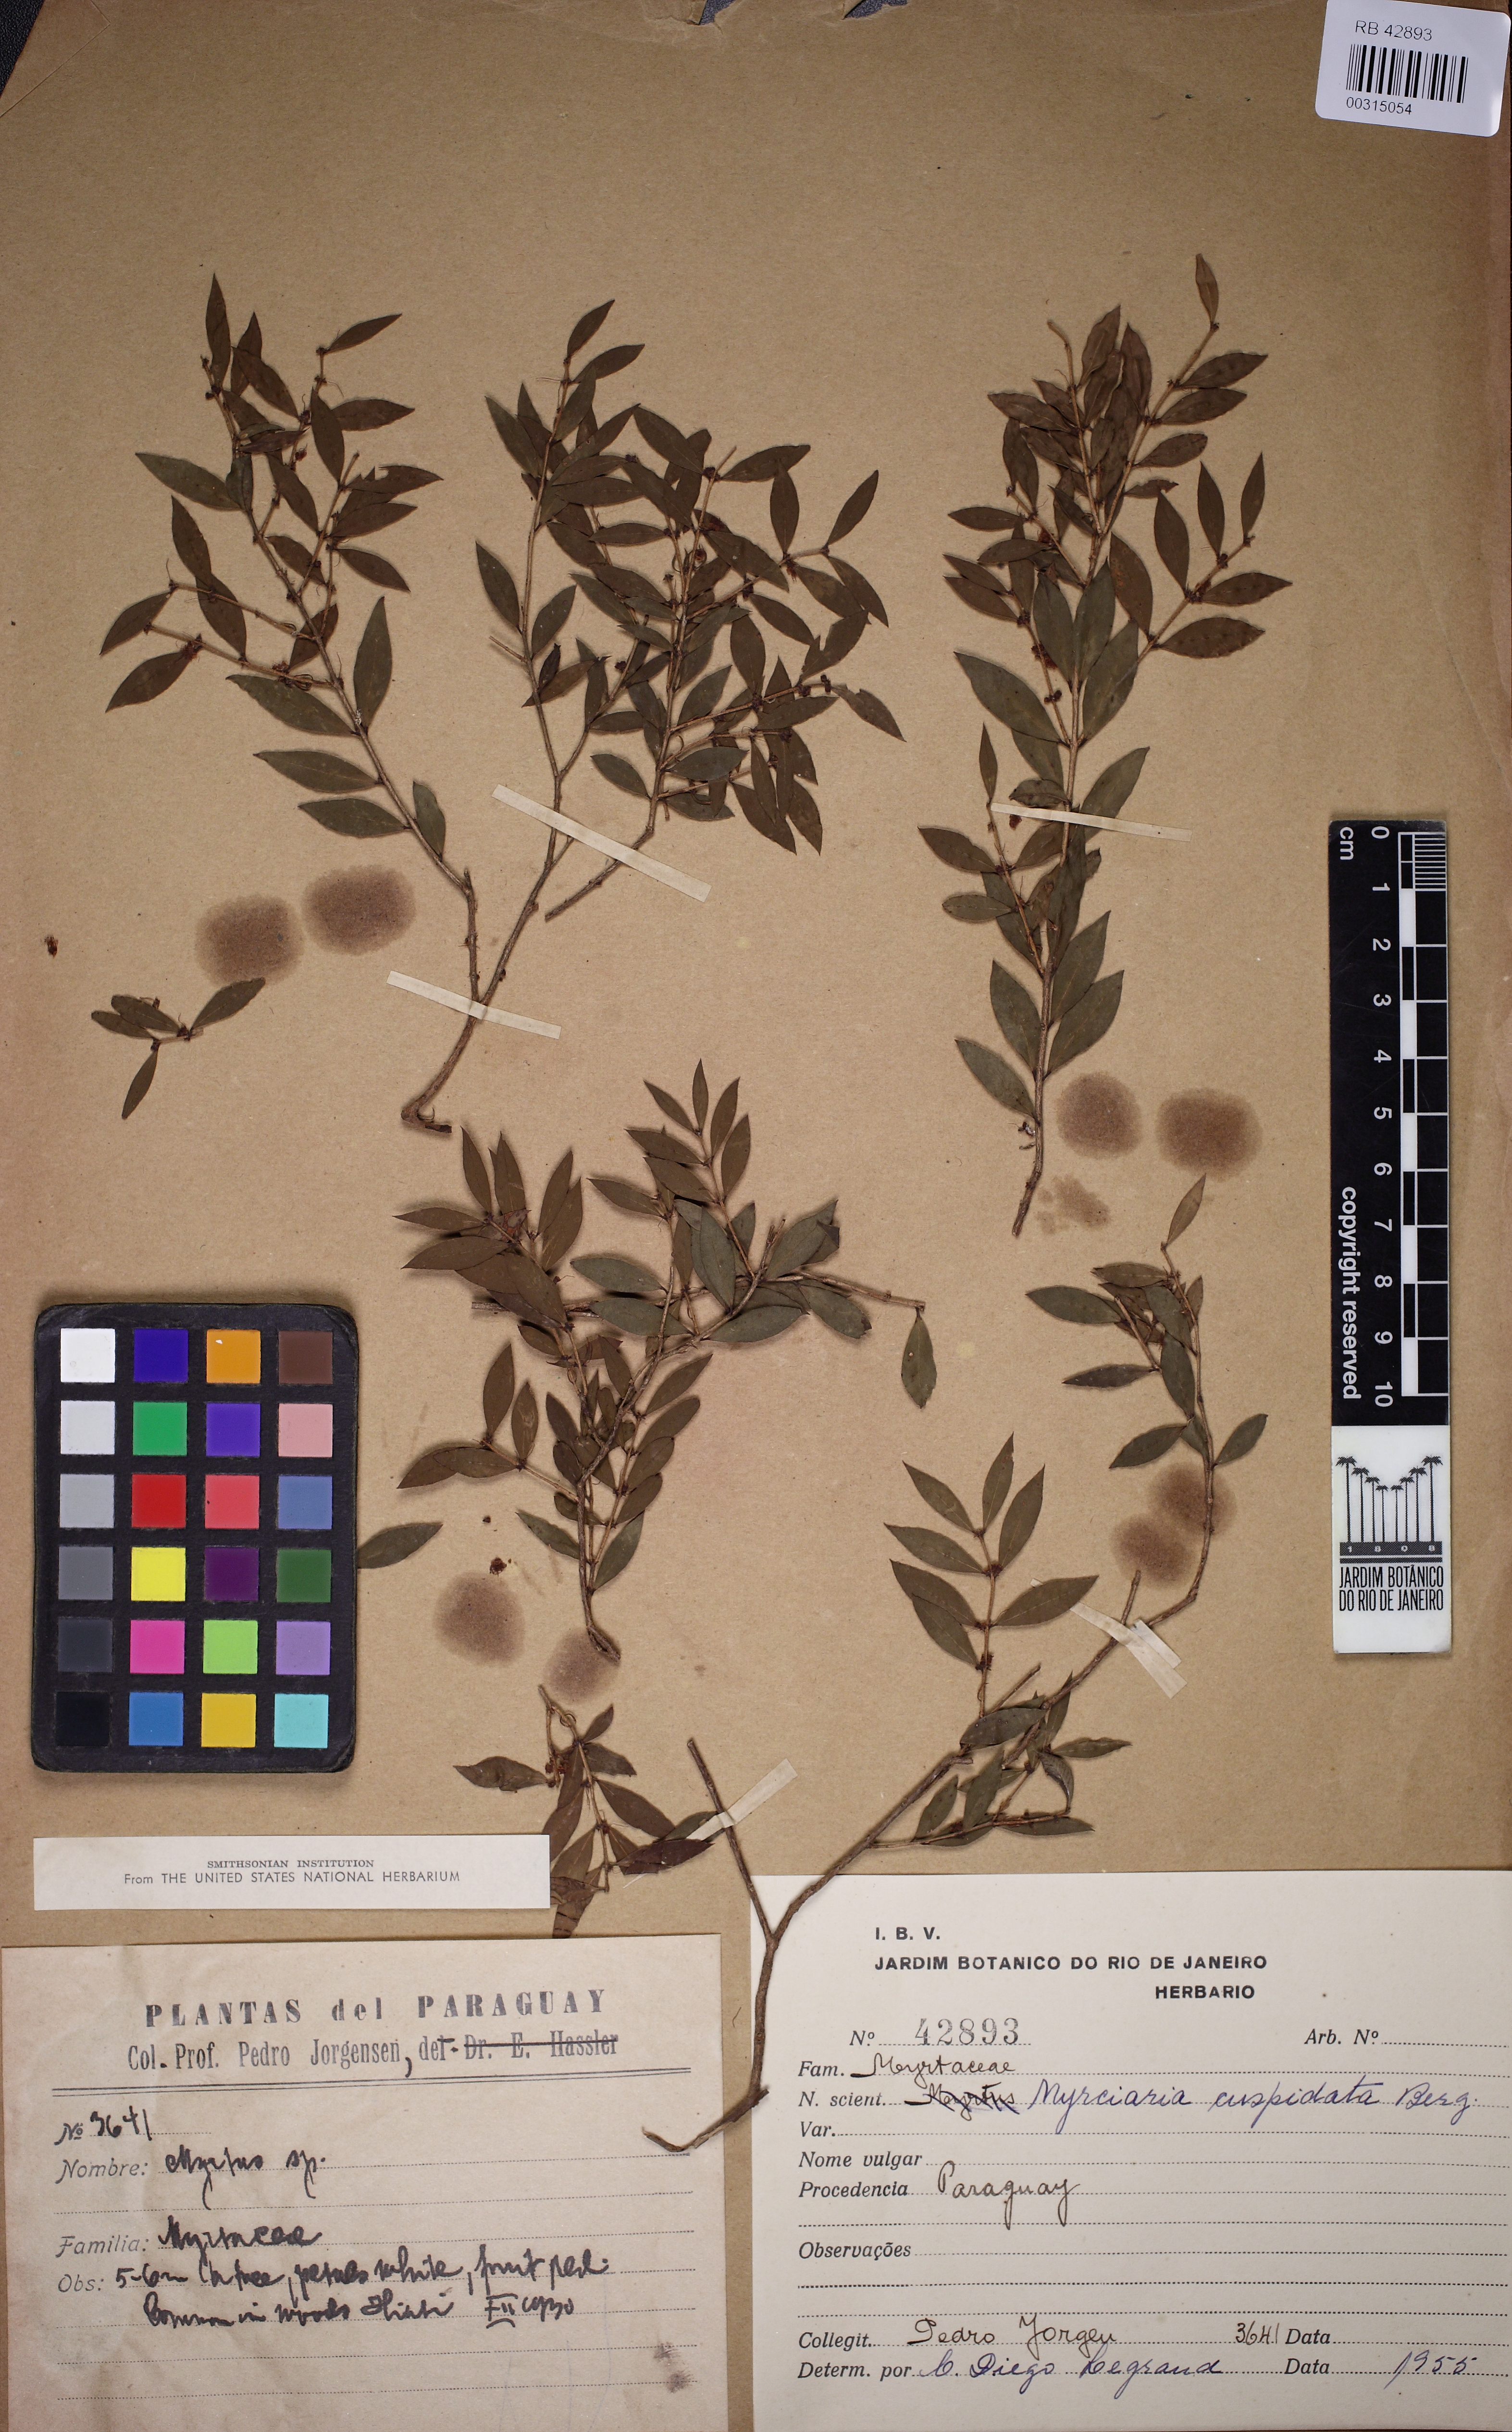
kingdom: Plantae
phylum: Tracheophyta
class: Magnoliopsida
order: Myrtales
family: Myrtaceae
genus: Myrciaria
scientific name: Myrciaria cuspidata
